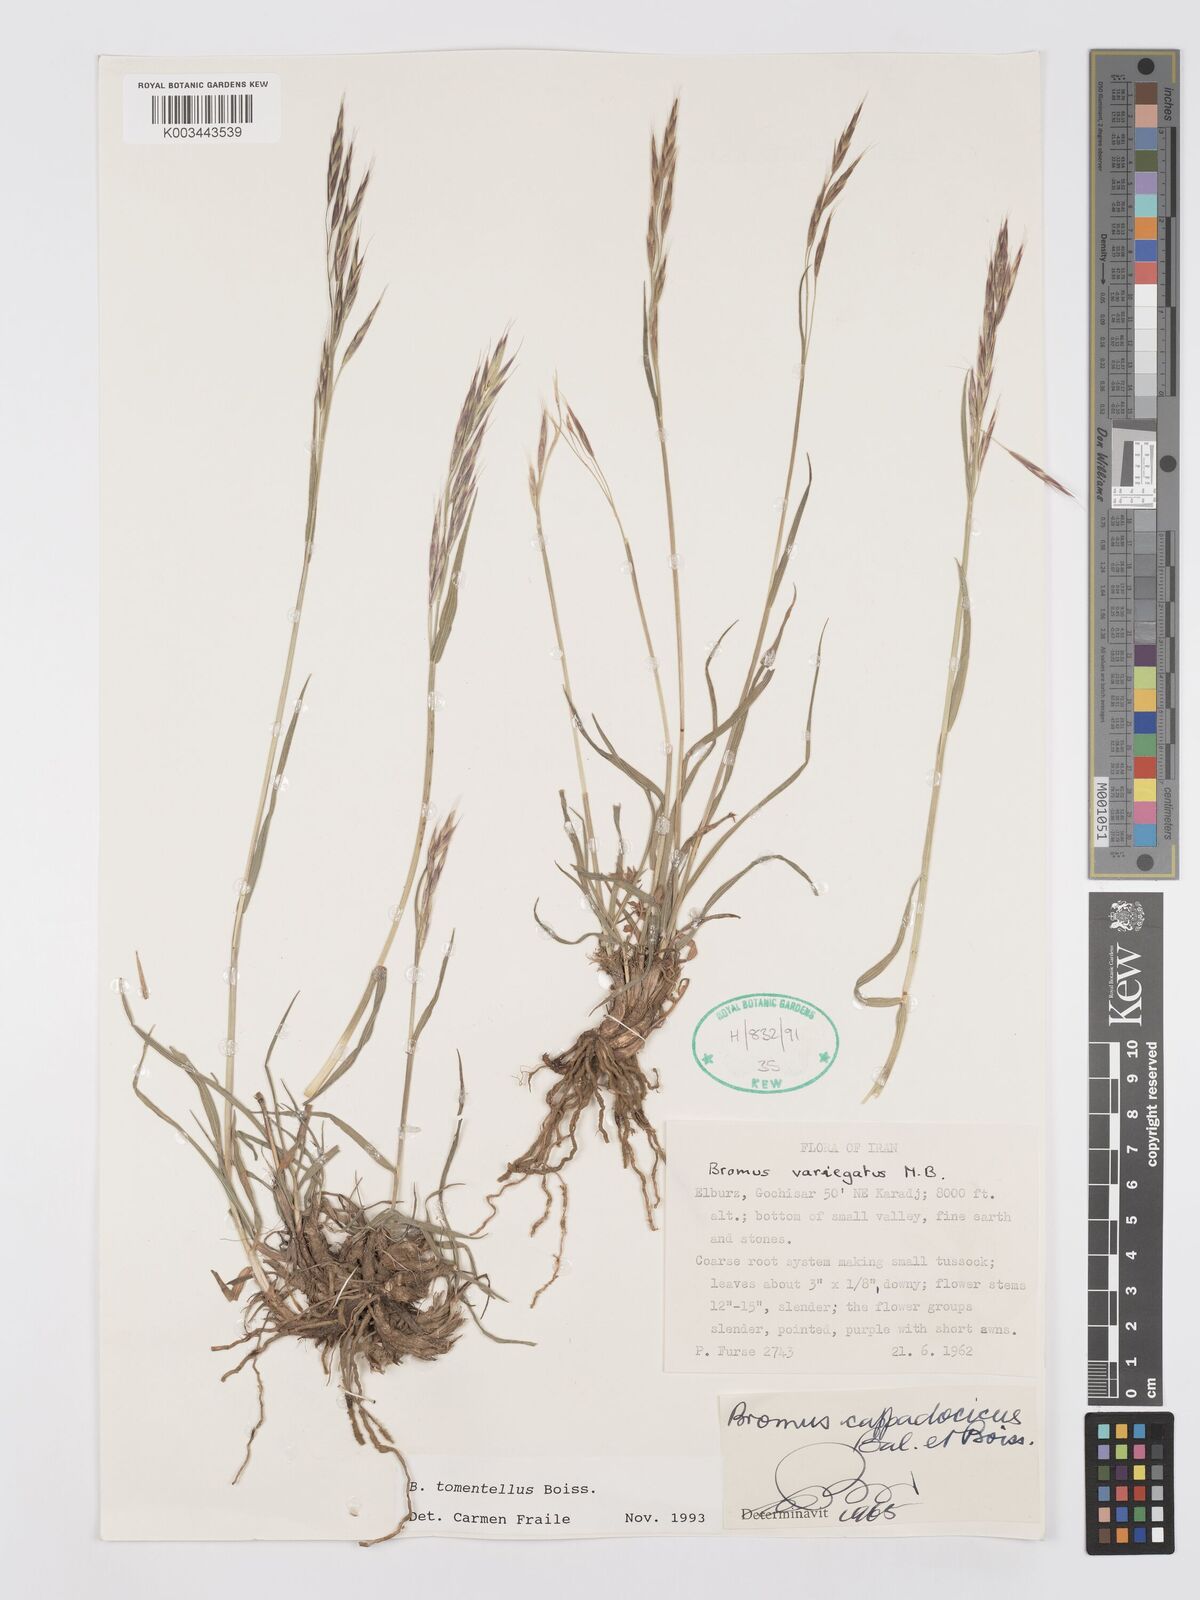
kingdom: Plantae
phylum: Tracheophyta
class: Liliopsida
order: Poales
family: Poaceae
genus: Bromus
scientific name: Bromus tomentellus
